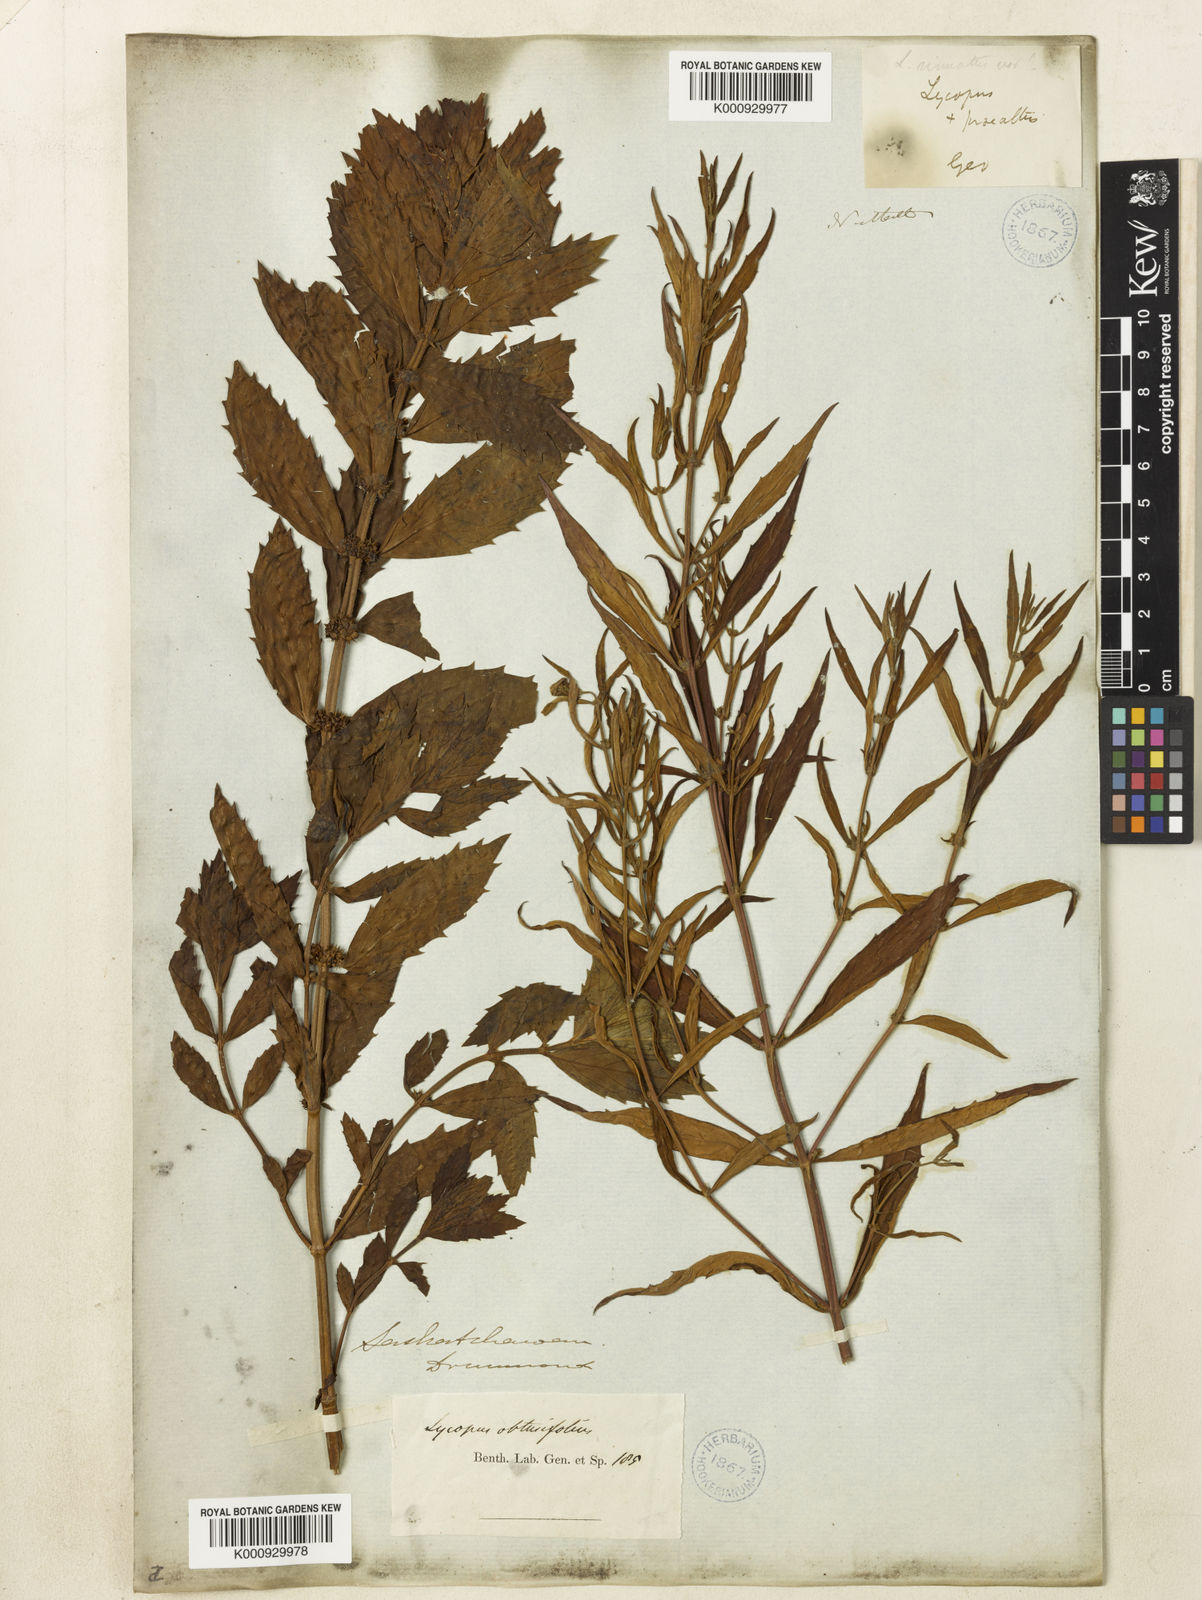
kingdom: Plantae
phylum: Tracheophyta
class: Magnoliopsida
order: Lamiales
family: Lamiaceae
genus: Lycopus
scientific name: Lycopus americanus
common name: American bugleweed
